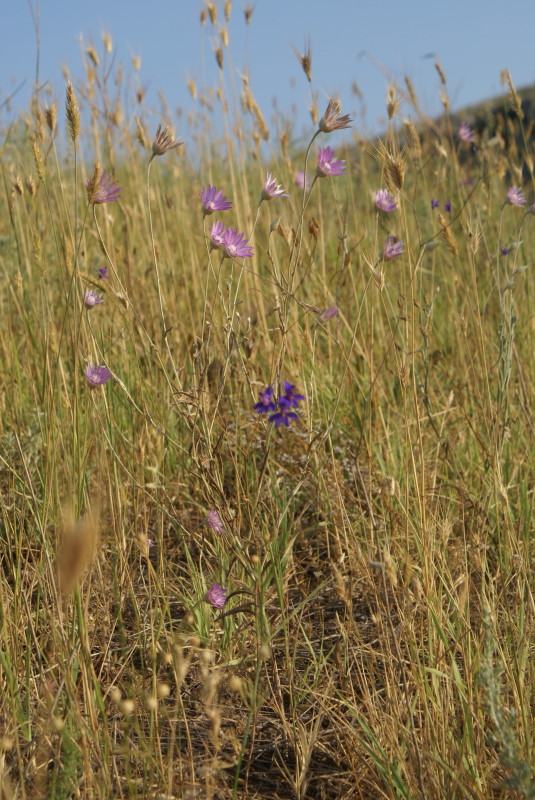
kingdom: Plantae
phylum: Tracheophyta
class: Magnoliopsida
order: Asterales
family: Asteraceae
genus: Xeranthemum
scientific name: Xeranthemum annuum
